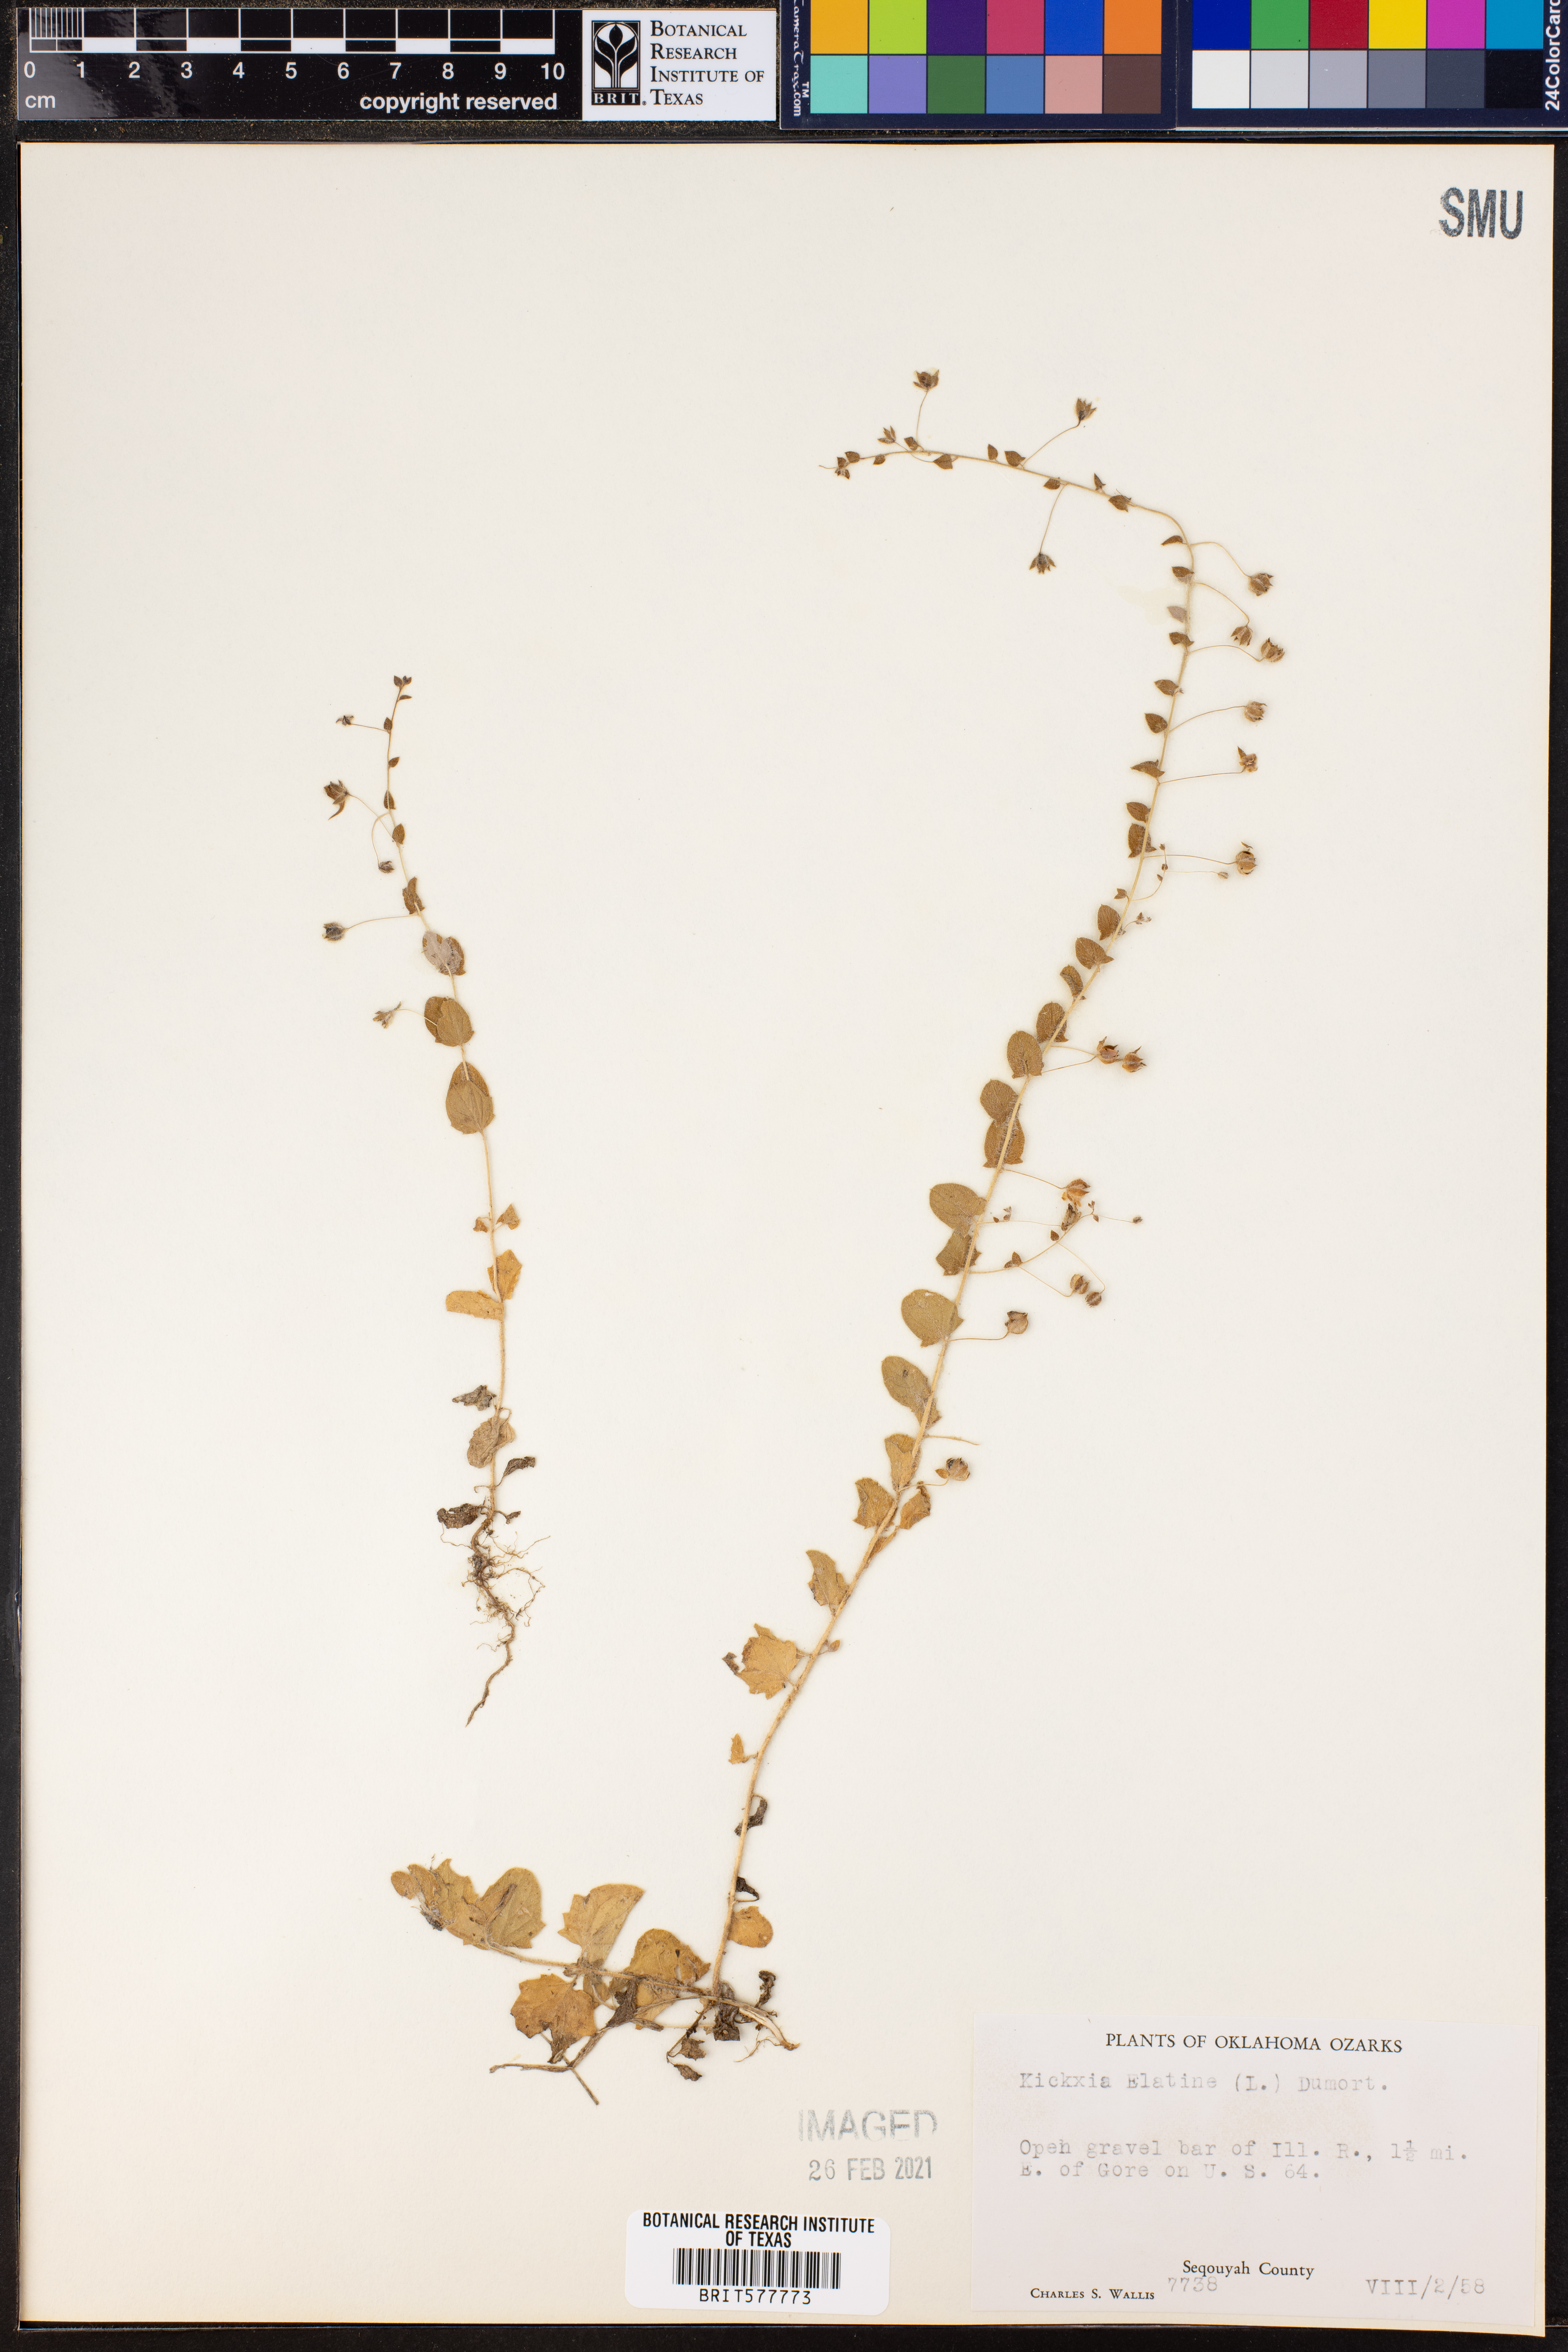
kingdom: Plantae
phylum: Tracheophyta
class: Magnoliopsida
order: Lamiales
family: Plantaginaceae
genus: Kickxia
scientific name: Kickxia elatine
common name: Sharp-leaved fluellen
